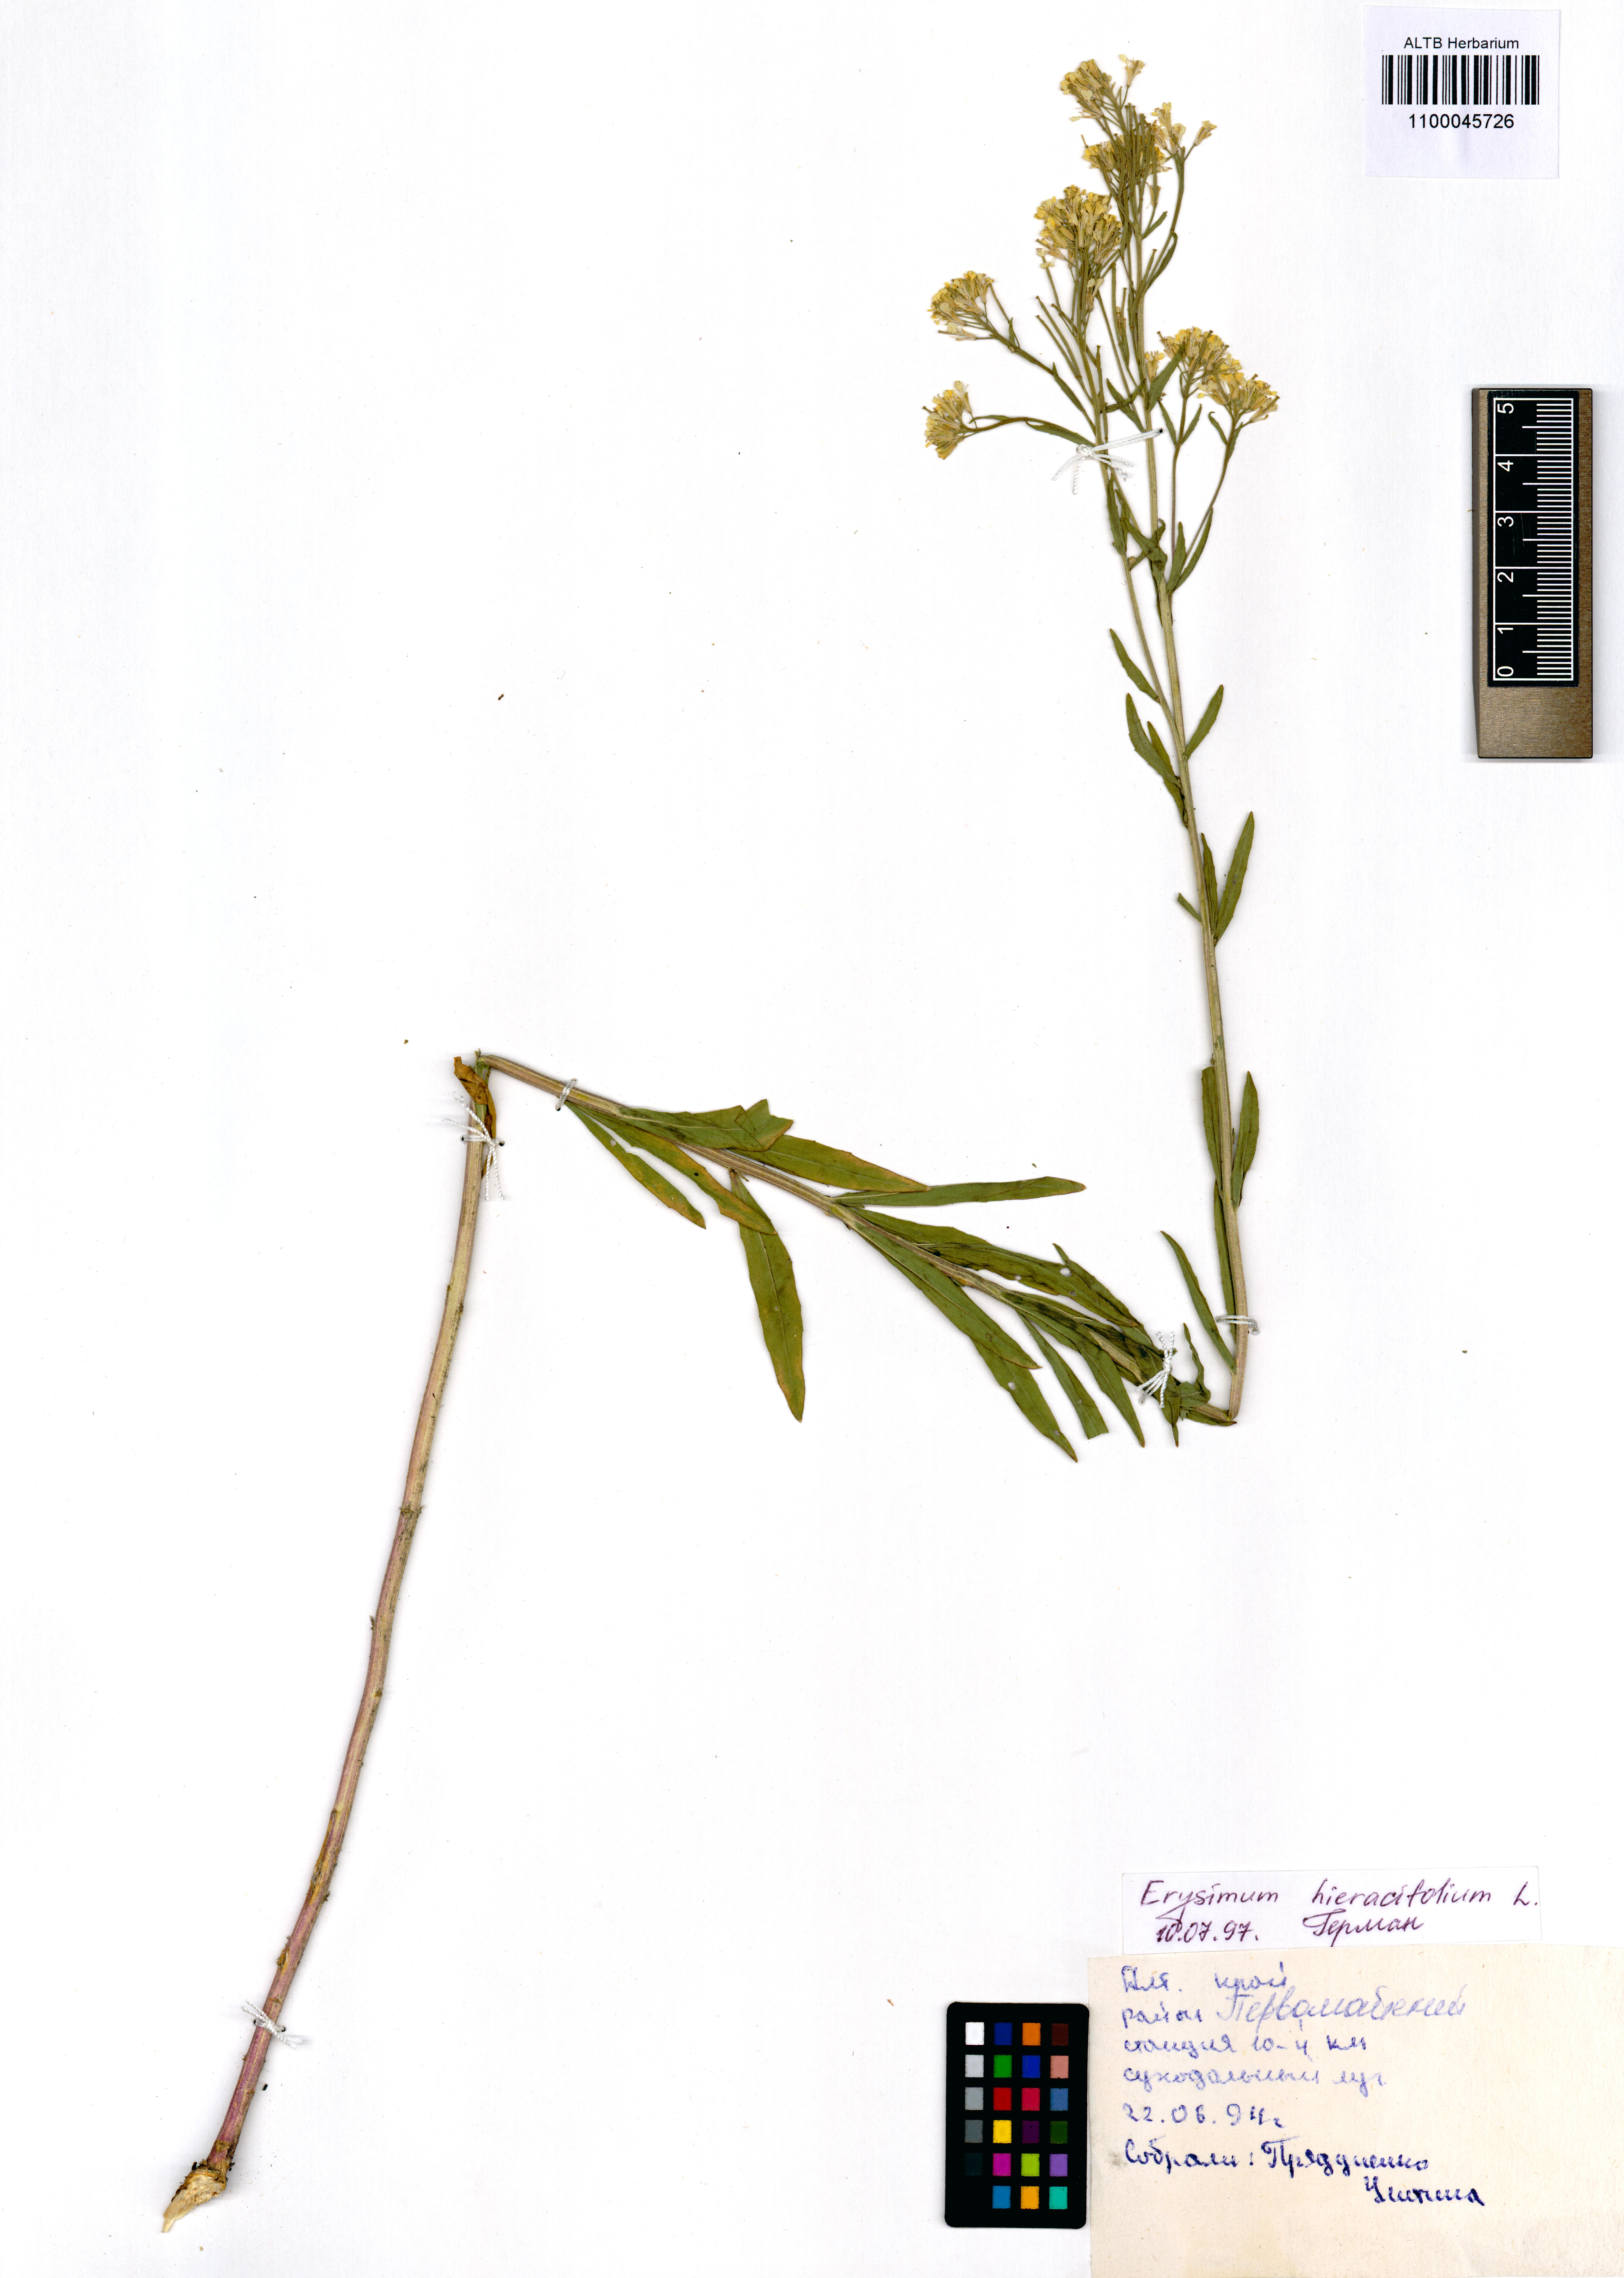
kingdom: Plantae
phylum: Tracheophyta
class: Magnoliopsida
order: Brassicales
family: Brassicaceae
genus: Erysimum
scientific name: Erysimum hieraciifolium
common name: European wallflower
